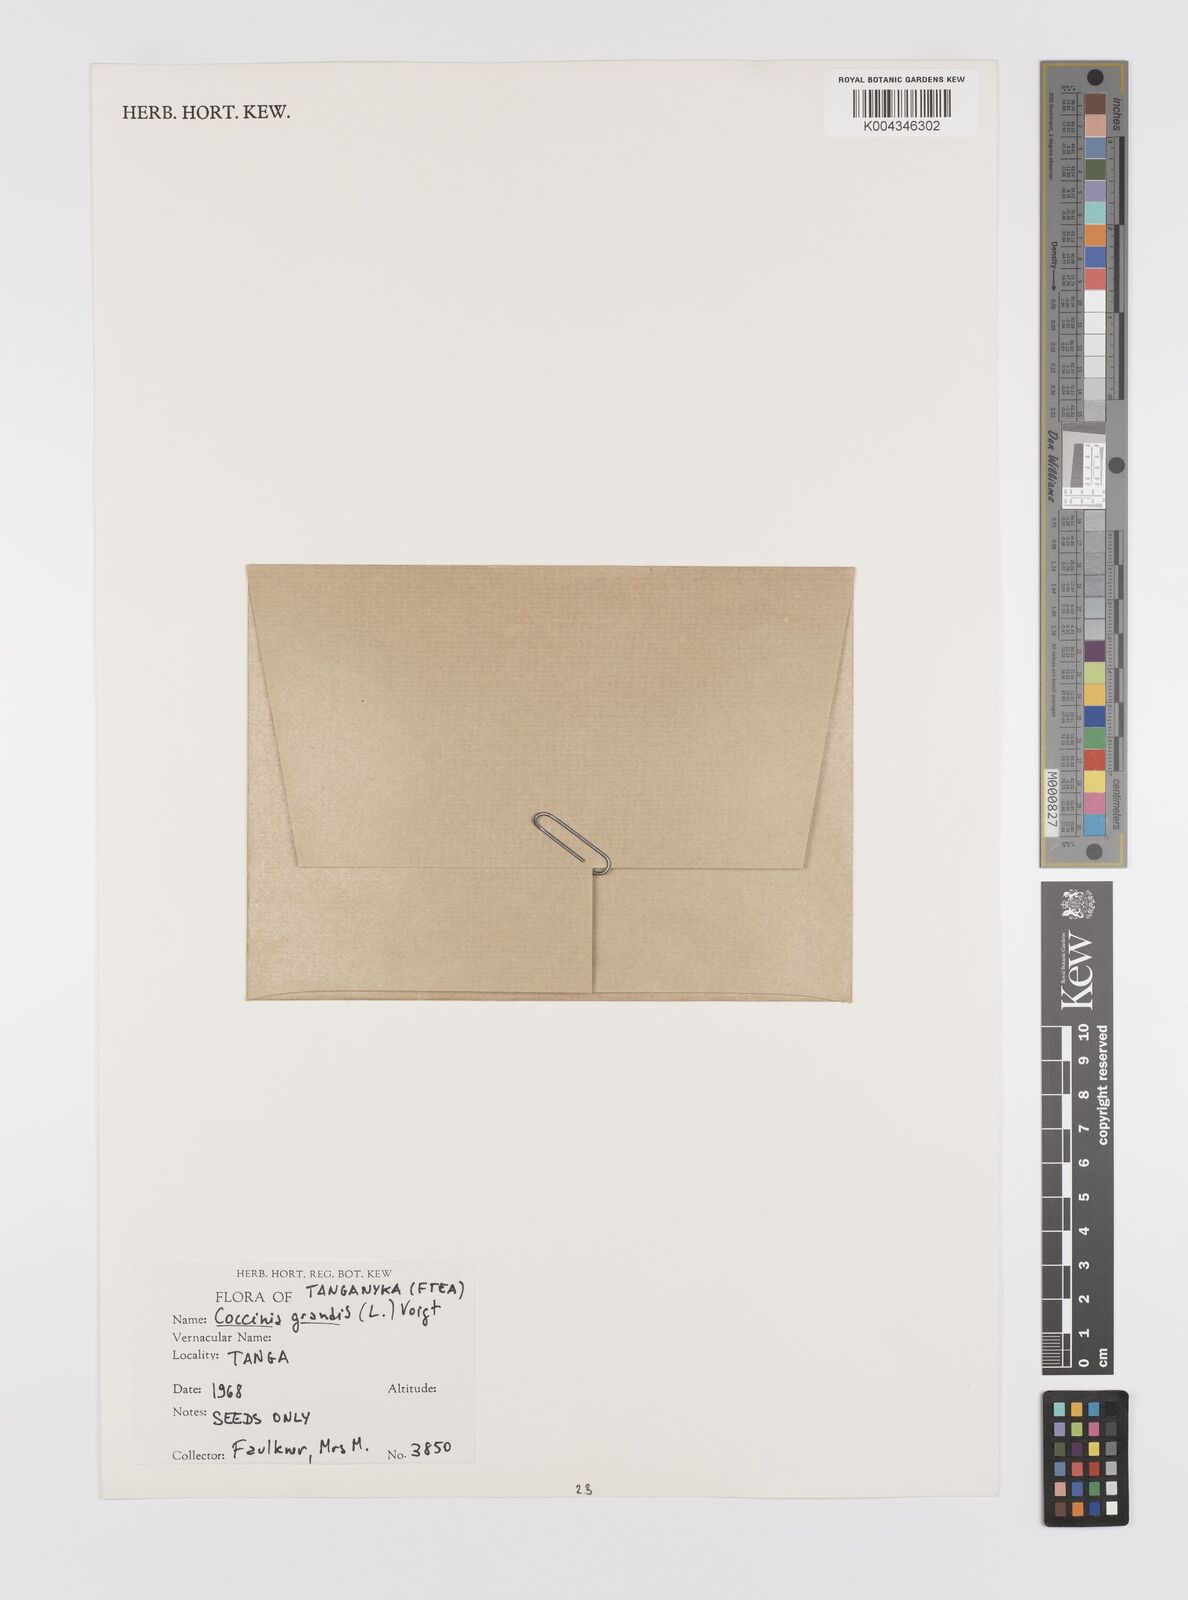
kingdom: Plantae
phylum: Tracheophyta
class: Magnoliopsida
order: Cucurbitales
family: Cucurbitaceae
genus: Coccinia
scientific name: Coccinia grandis
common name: Ivy gourd
